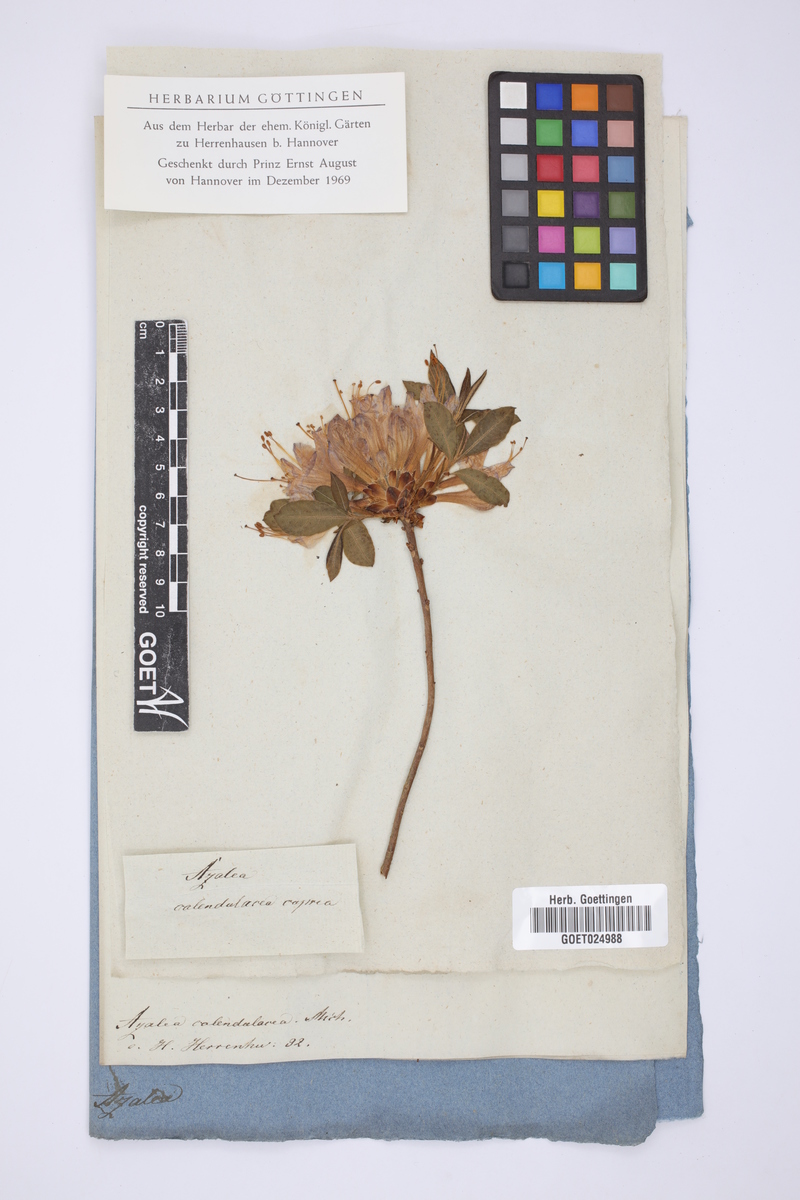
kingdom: Plantae
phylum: Tracheophyta
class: Magnoliopsida
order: Ericales
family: Ericaceae
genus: Rhododendron
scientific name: Rhododendron calendulaceum
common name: Flame azalea
